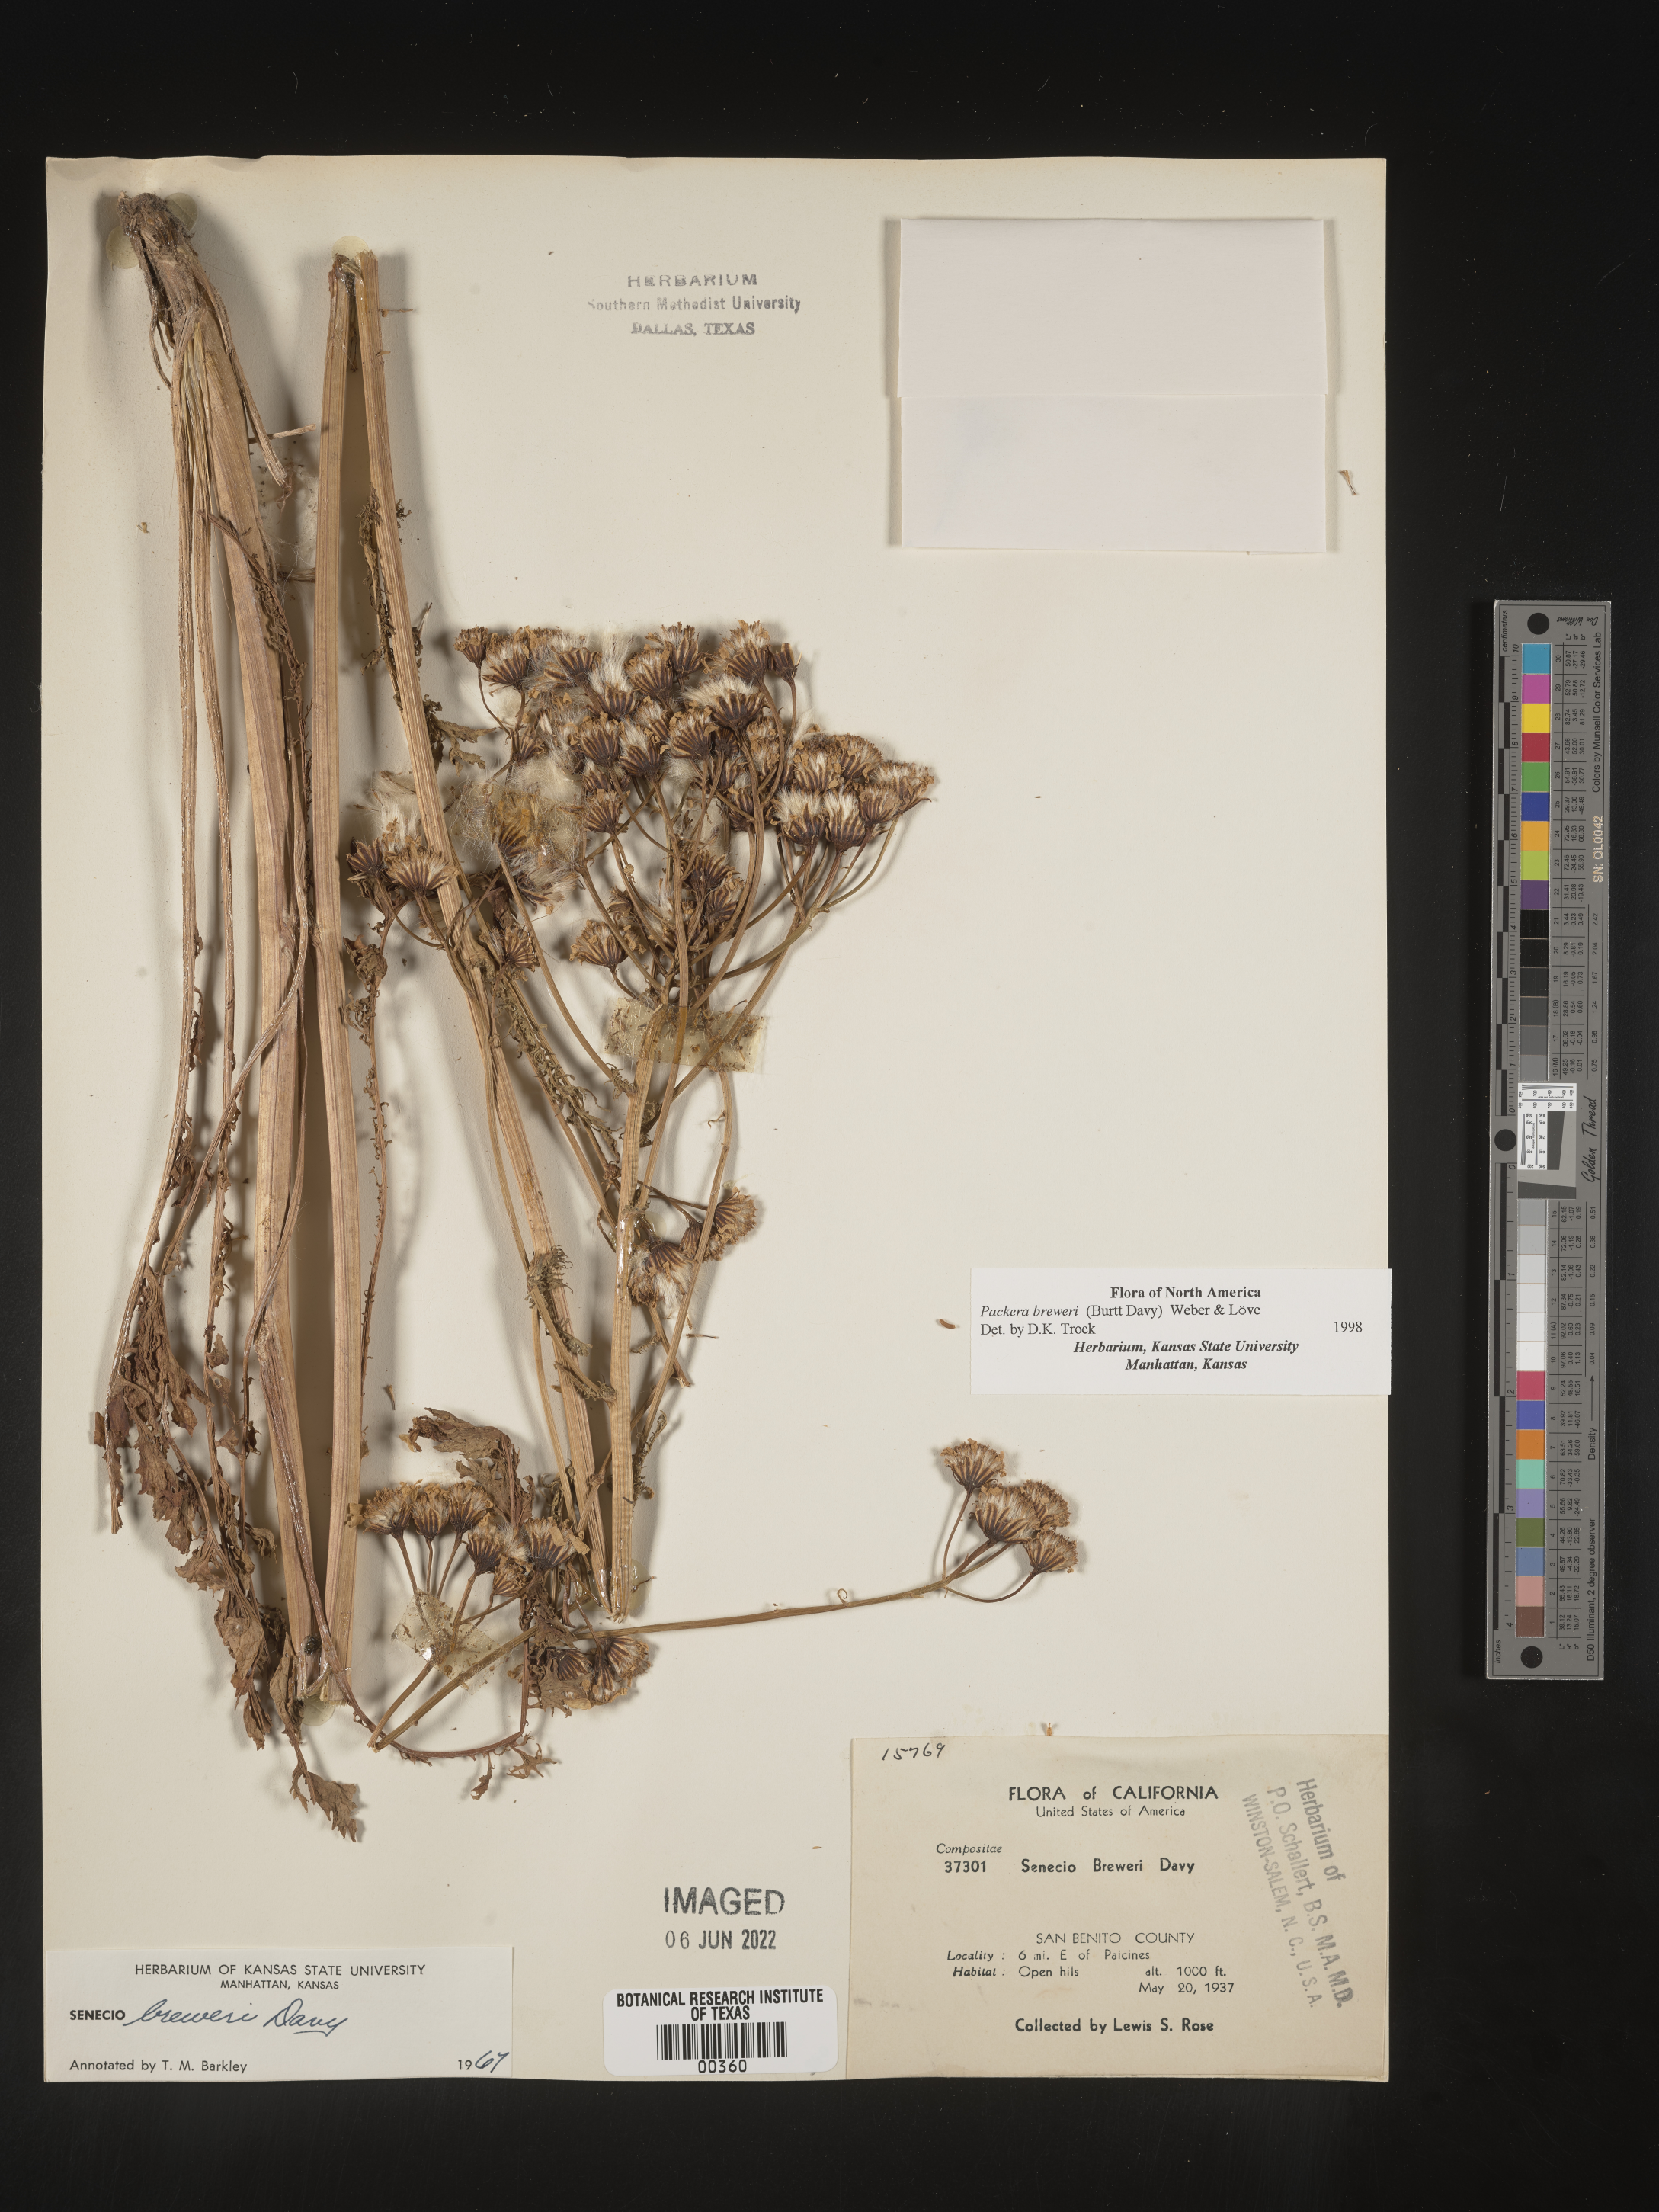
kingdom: Plantae
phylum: Tracheophyta
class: Magnoliopsida
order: Asterales
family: Asteraceae
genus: Packera
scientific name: Packera breweri
